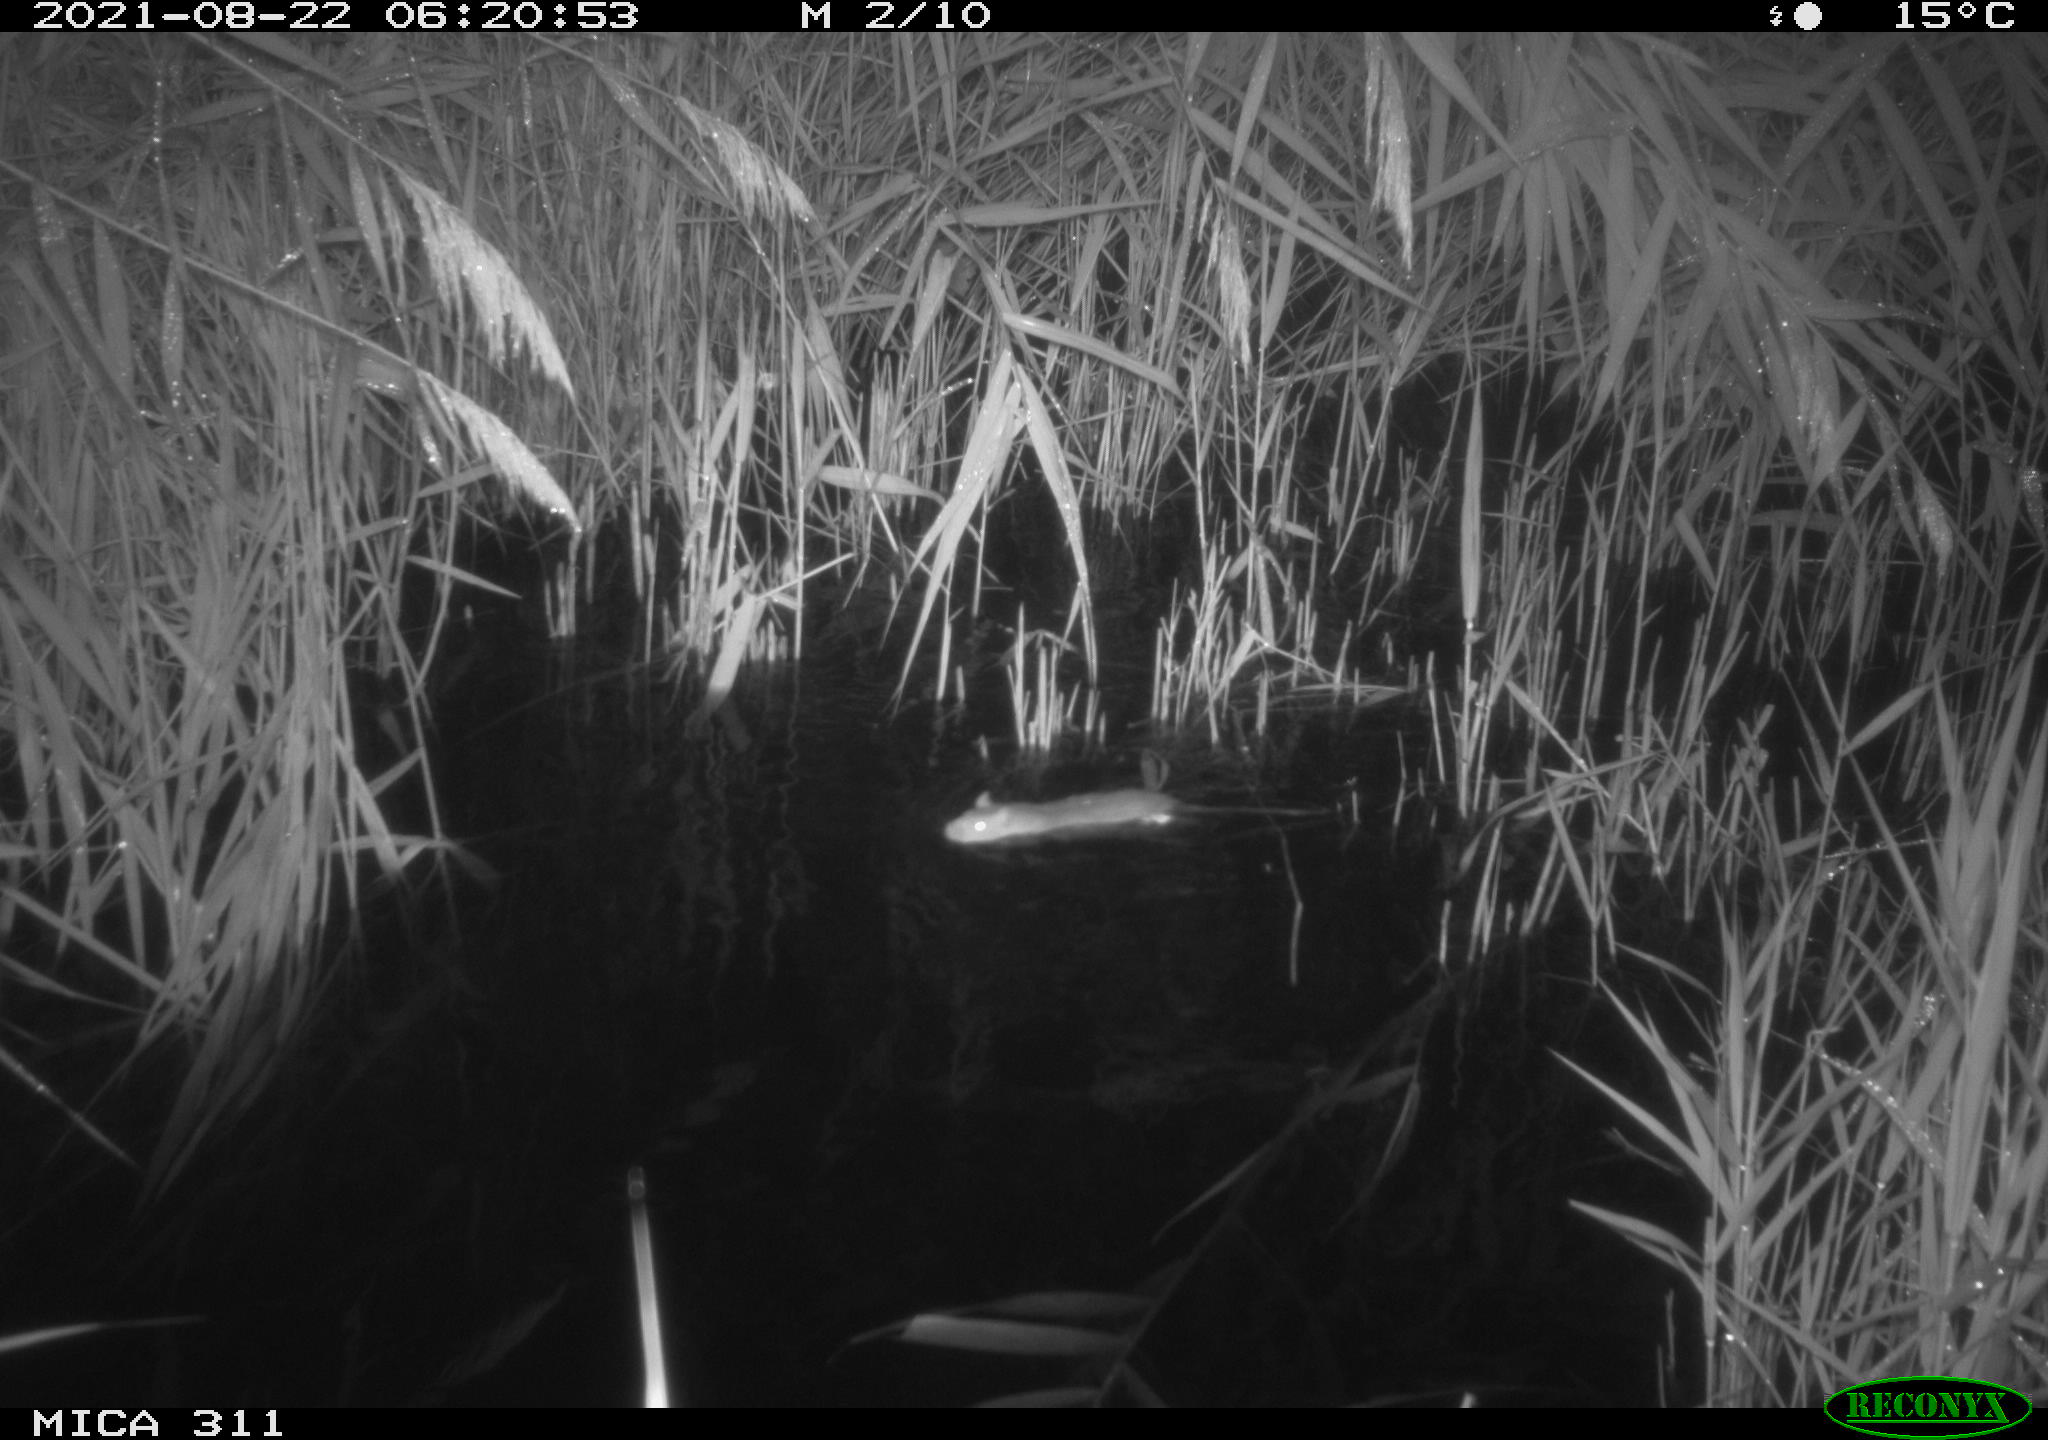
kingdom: Animalia
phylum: Chordata
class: Mammalia
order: Rodentia
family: Muridae
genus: Rattus
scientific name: Rattus norvegicus
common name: Brown rat
